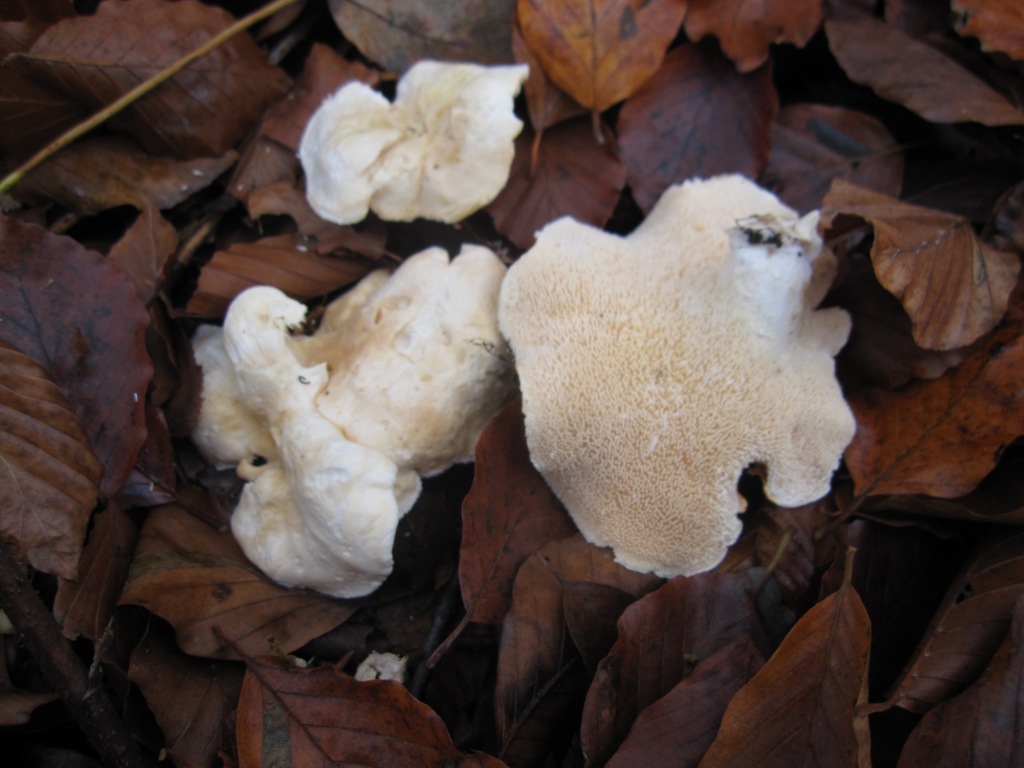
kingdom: Fungi
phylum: Basidiomycota
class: Agaricomycetes
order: Cantharellales
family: Hydnaceae
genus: Hydnum
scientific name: Hydnum repandum
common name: almindelig pigsvamp
